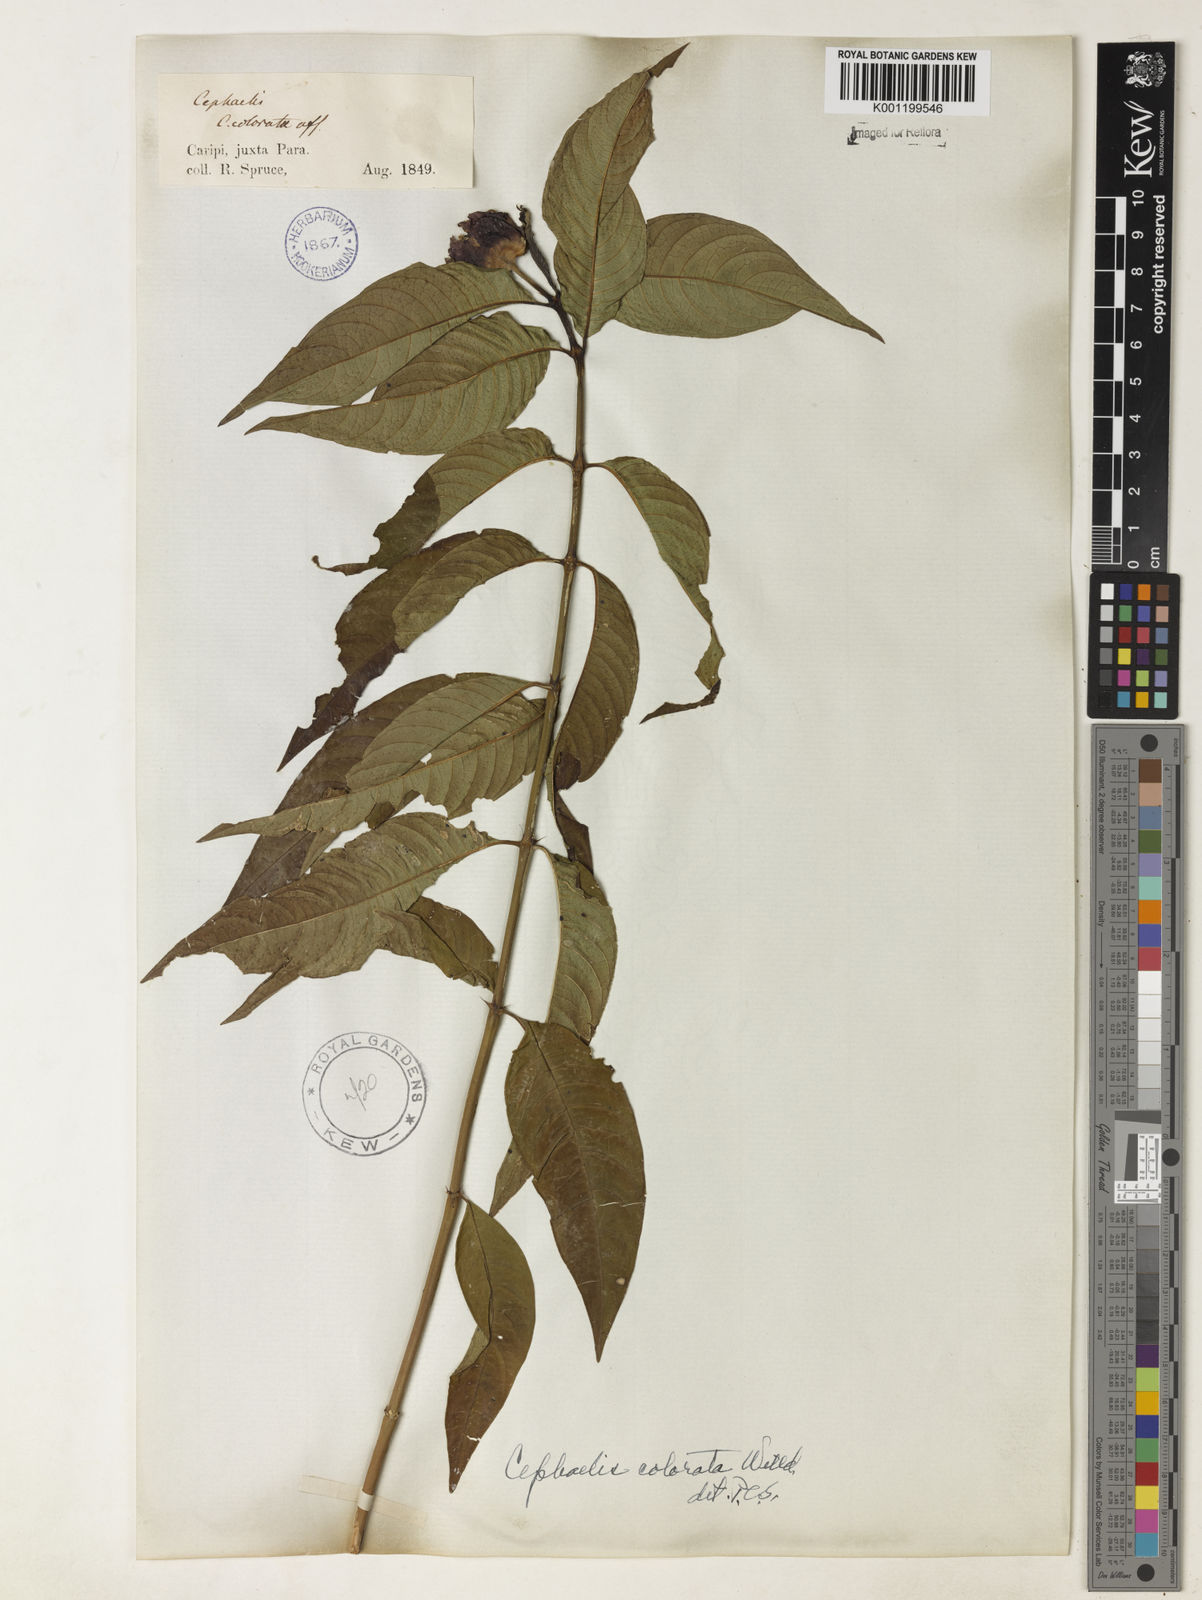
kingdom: Plantae
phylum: Tracheophyta
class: Magnoliopsida
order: Gentianales
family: Rubiaceae
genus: Psychotria
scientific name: Psychotria
